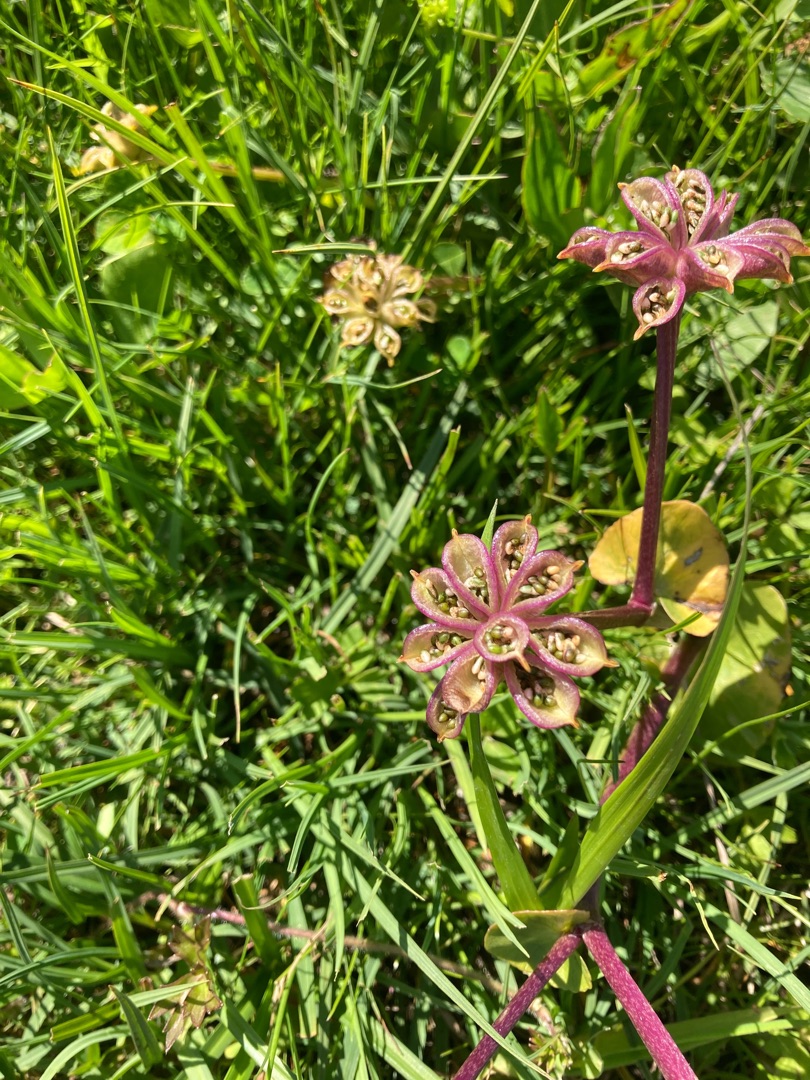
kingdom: Plantae
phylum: Tracheophyta
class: Magnoliopsida
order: Ranunculales
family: Ranunculaceae
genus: Caltha
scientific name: Caltha palustris
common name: Eng-kabbeleje
